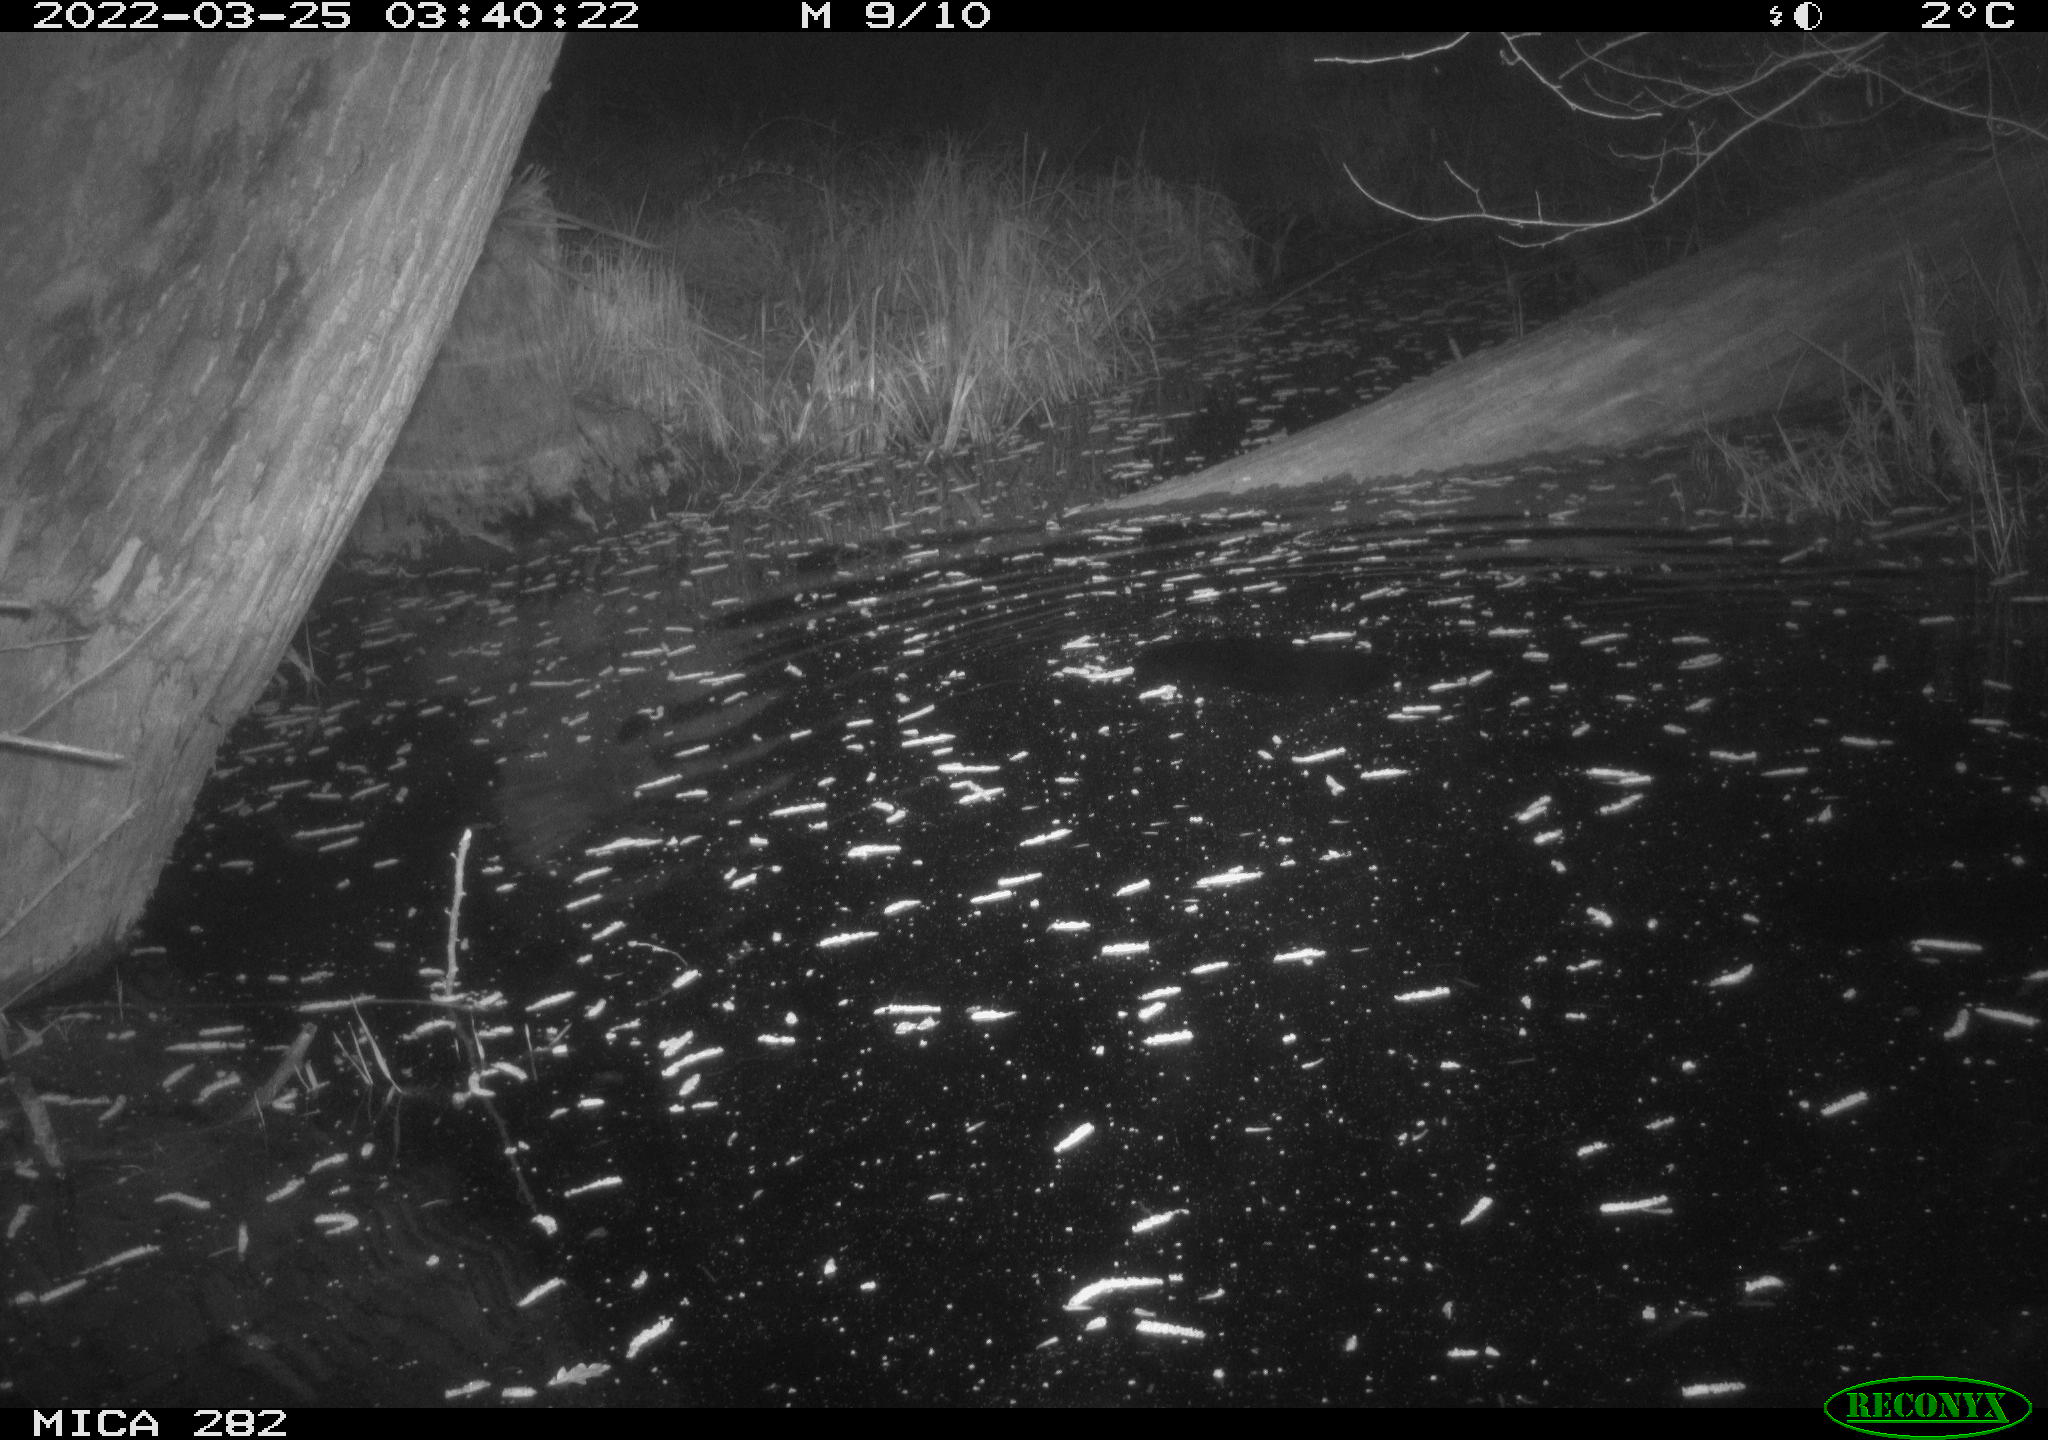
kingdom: Animalia
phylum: Chordata
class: Mammalia
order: Rodentia
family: Castoridae
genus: Castor
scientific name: Castor fiber
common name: Eurasian beaver
